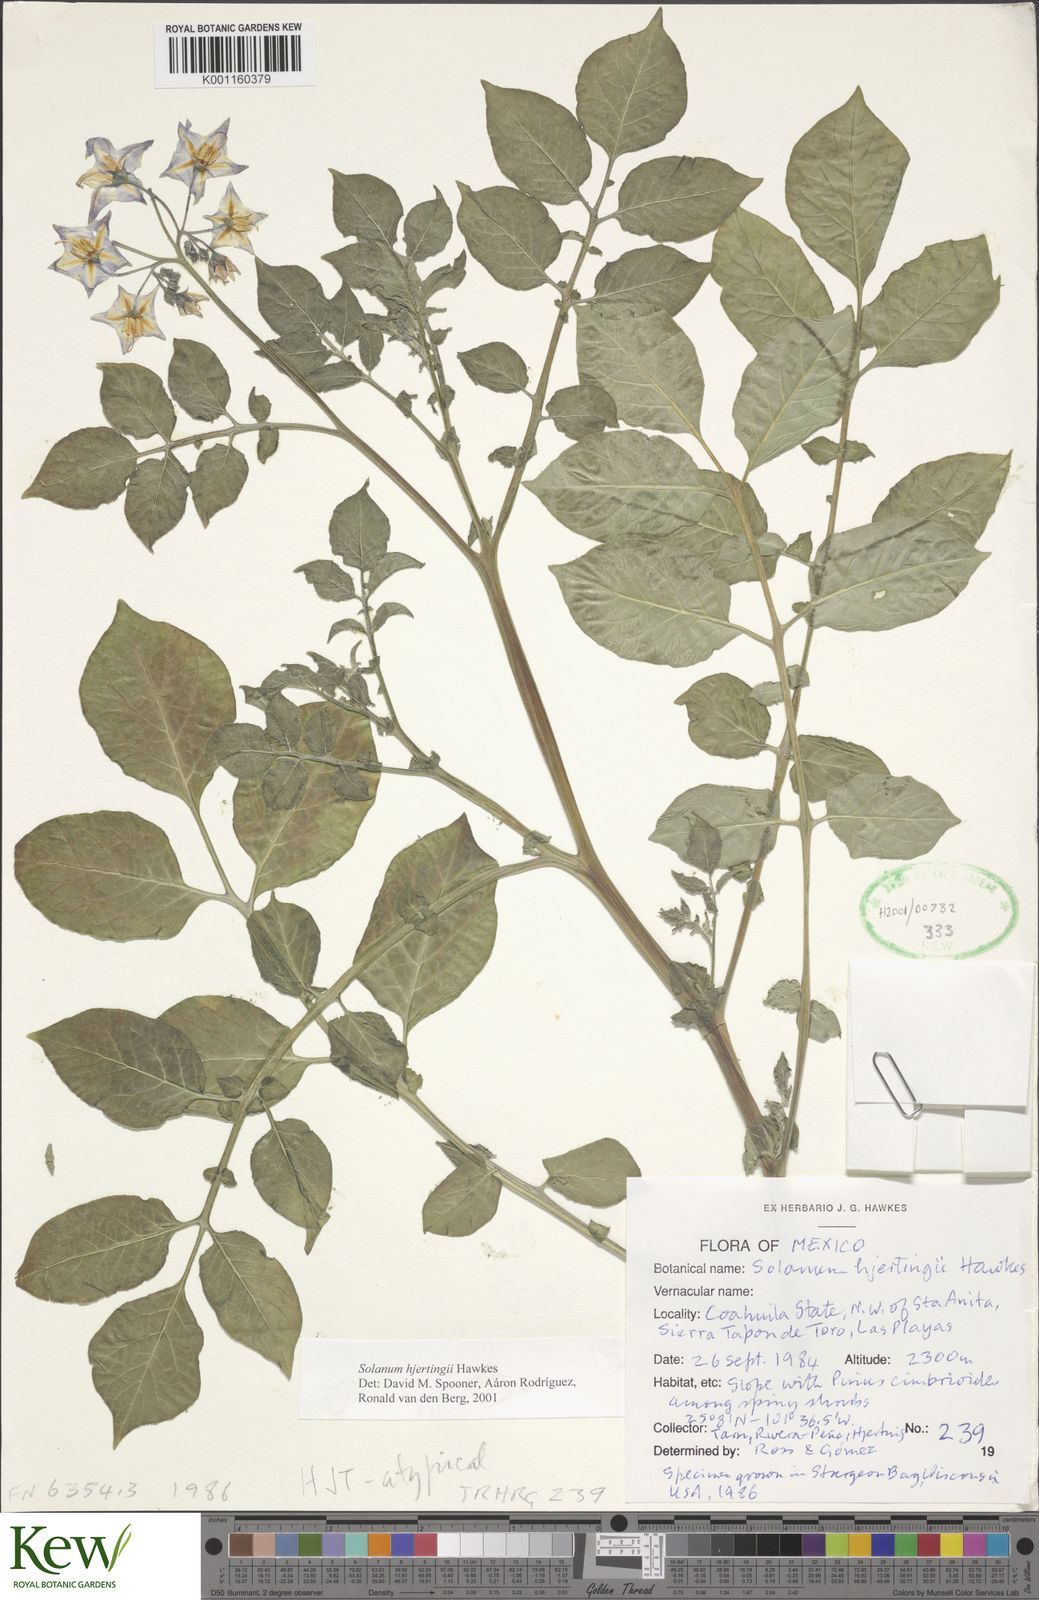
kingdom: Plantae
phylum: Tracheophyta
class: Magnoliopsida
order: Solanales
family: Solanaceae
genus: Solanum
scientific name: Solanum hjertingii
